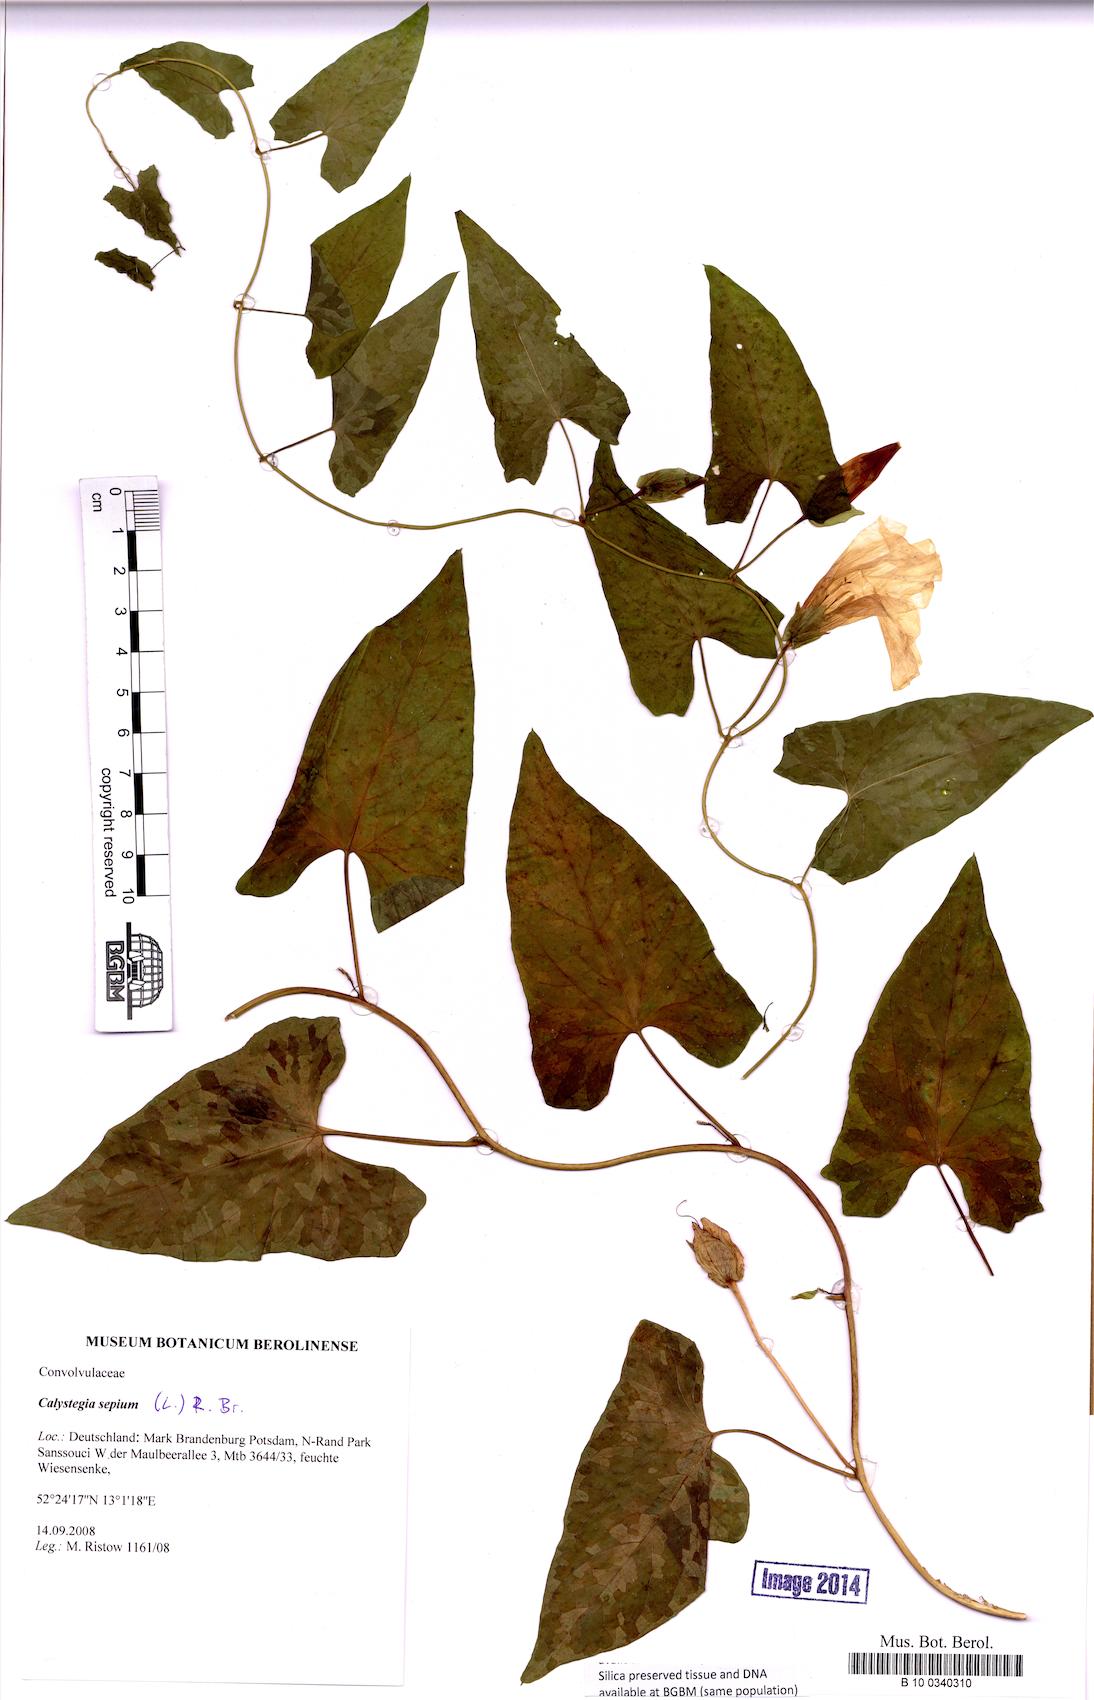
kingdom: Plantae
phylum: Tracheophyta
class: Magnoliopsida
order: Solanales
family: Convolvulaceae
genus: Calystegia
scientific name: Calystegia sepium
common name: Hedge bindweed
